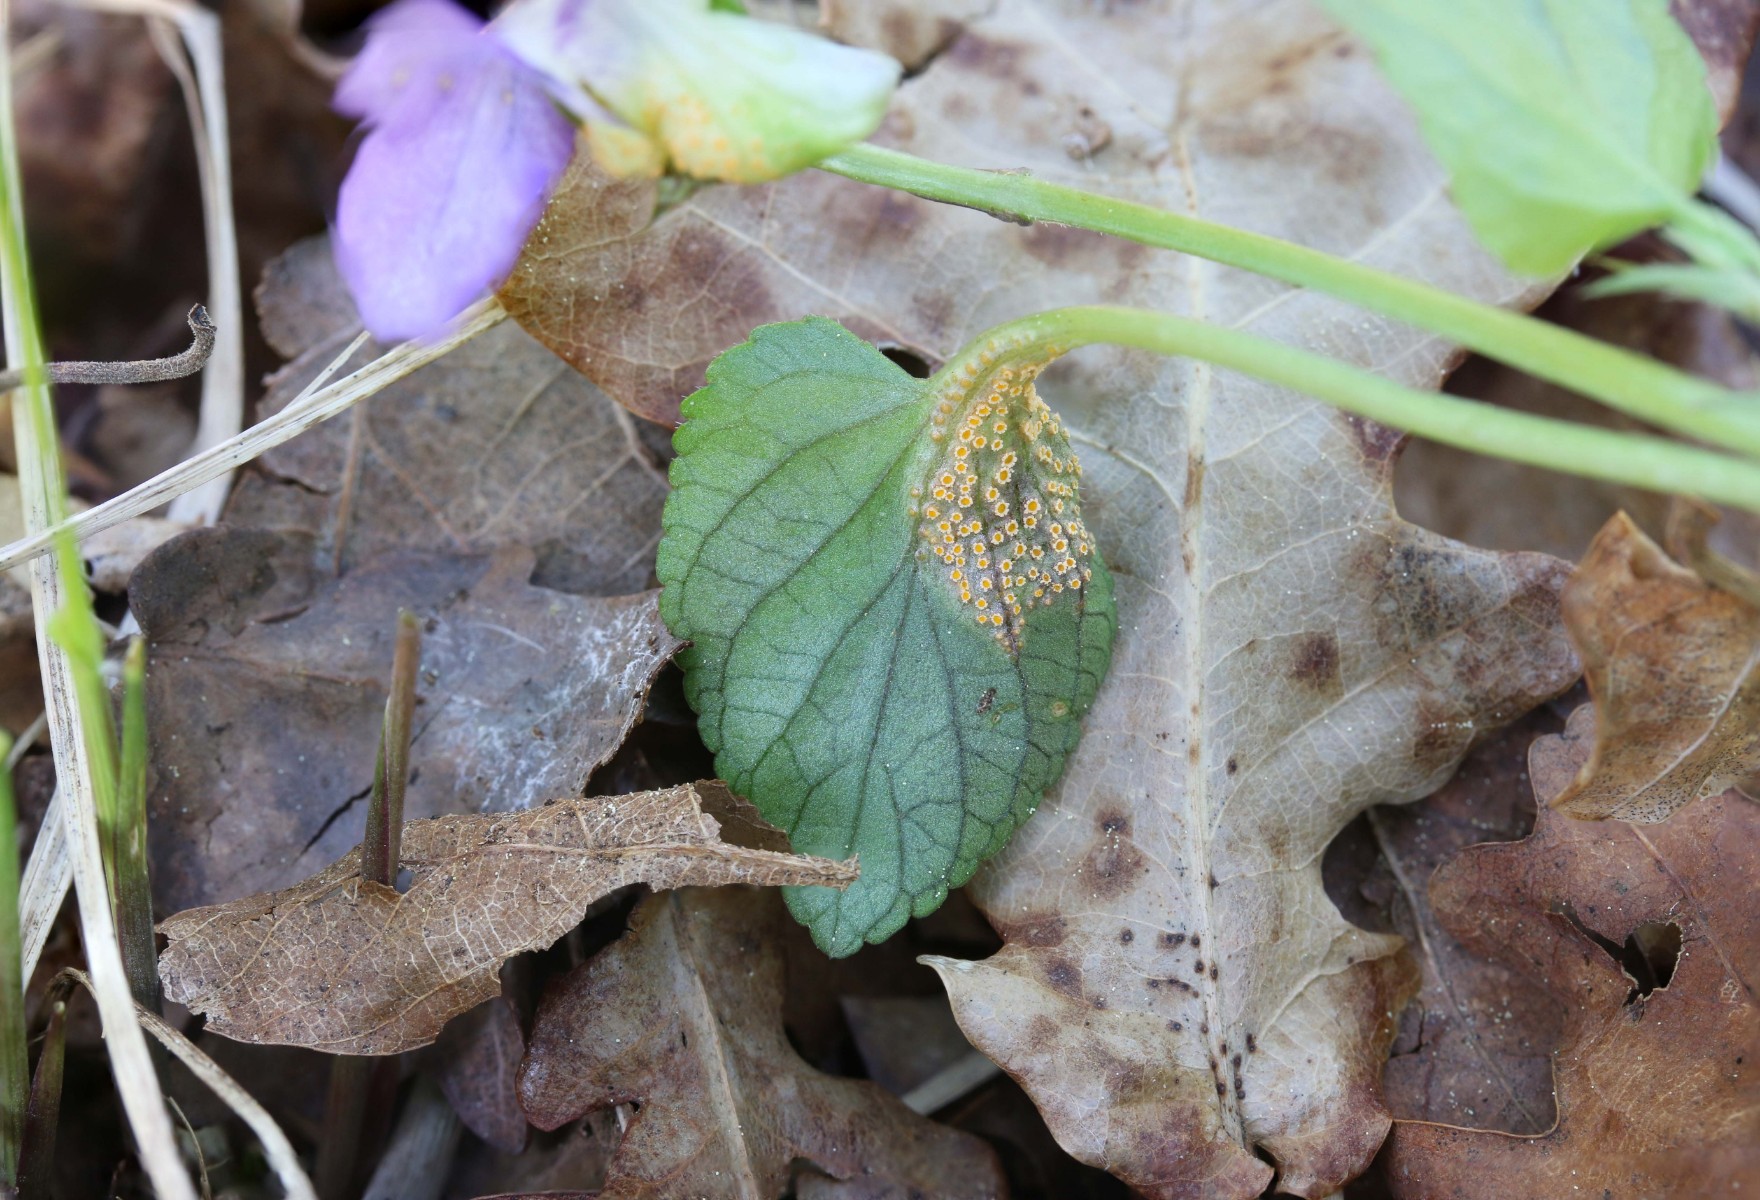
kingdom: Fungi
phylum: Basidiomycota
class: Pucciniomycetes
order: Pucciniales
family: Pucciniaceae
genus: Puccinia
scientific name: Puccinia violae
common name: viol-tvecellerust
